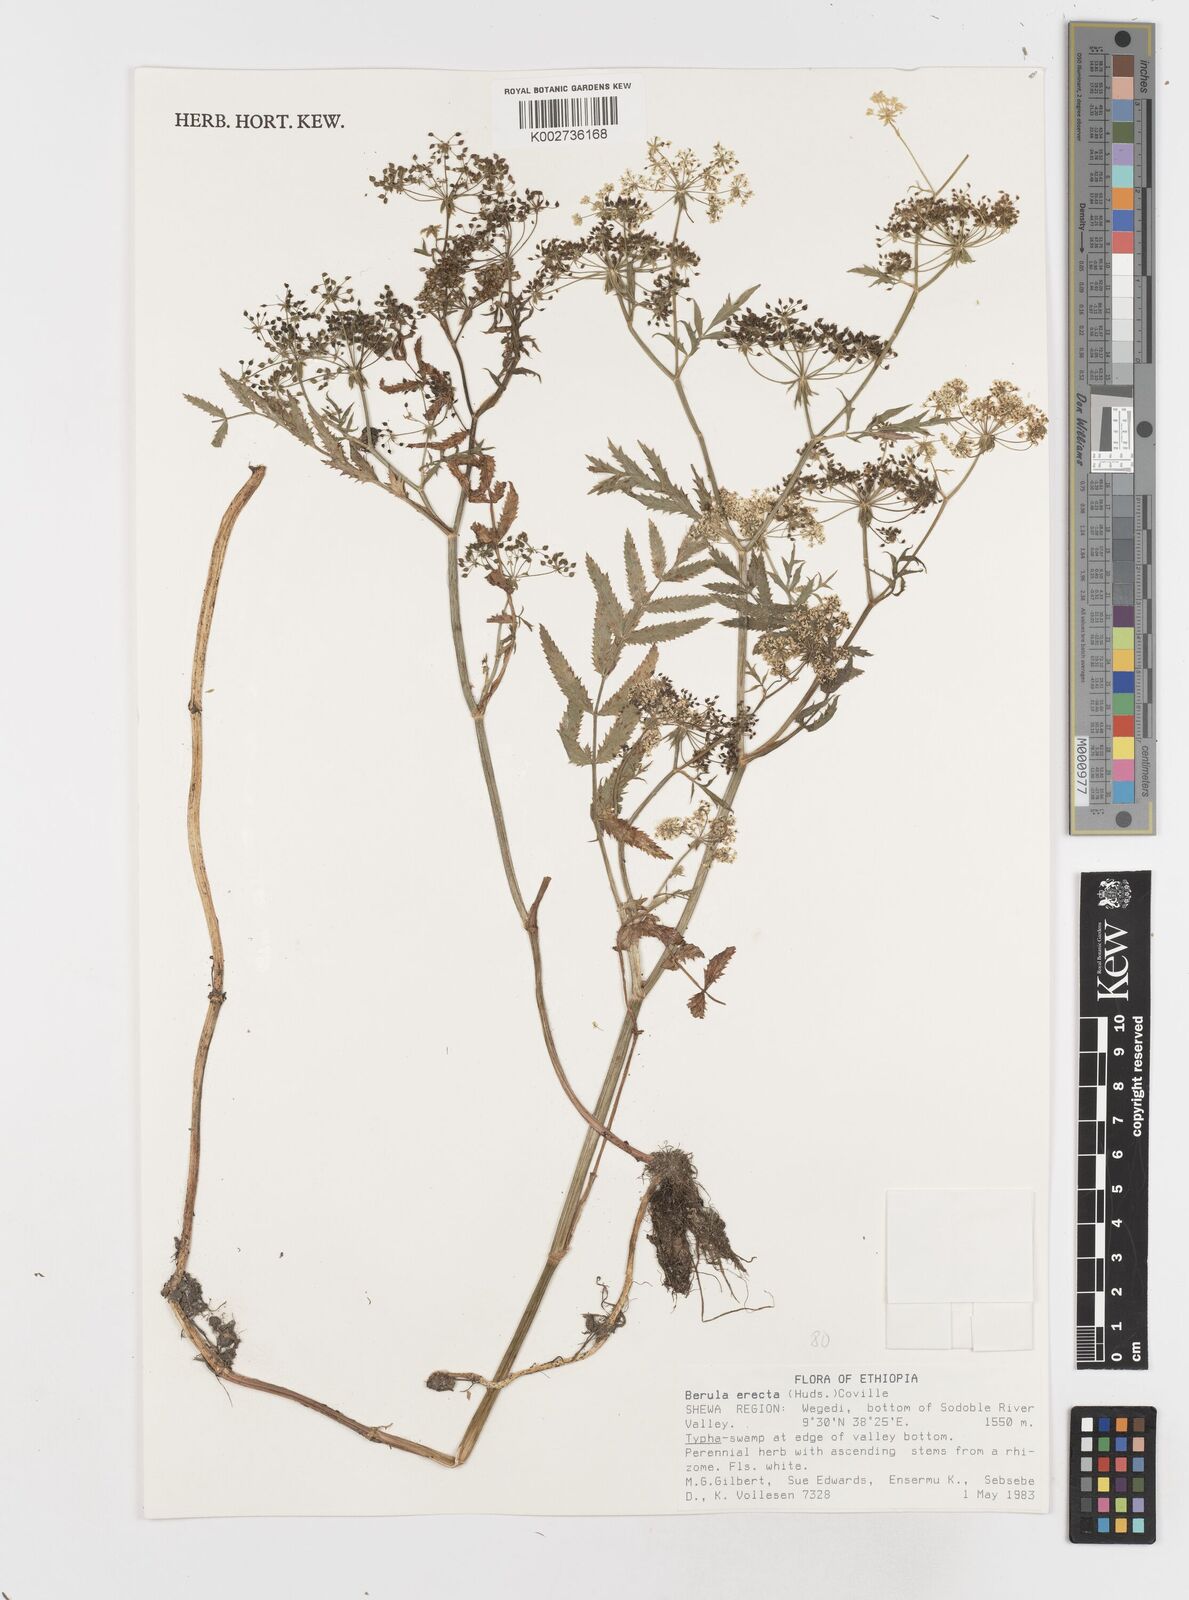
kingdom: Plantae
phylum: Tracheophyta
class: Magnoliopsida
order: Apiales
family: Apiaceae
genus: Berula
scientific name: Berula erecta
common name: Lesser water-parsnip
